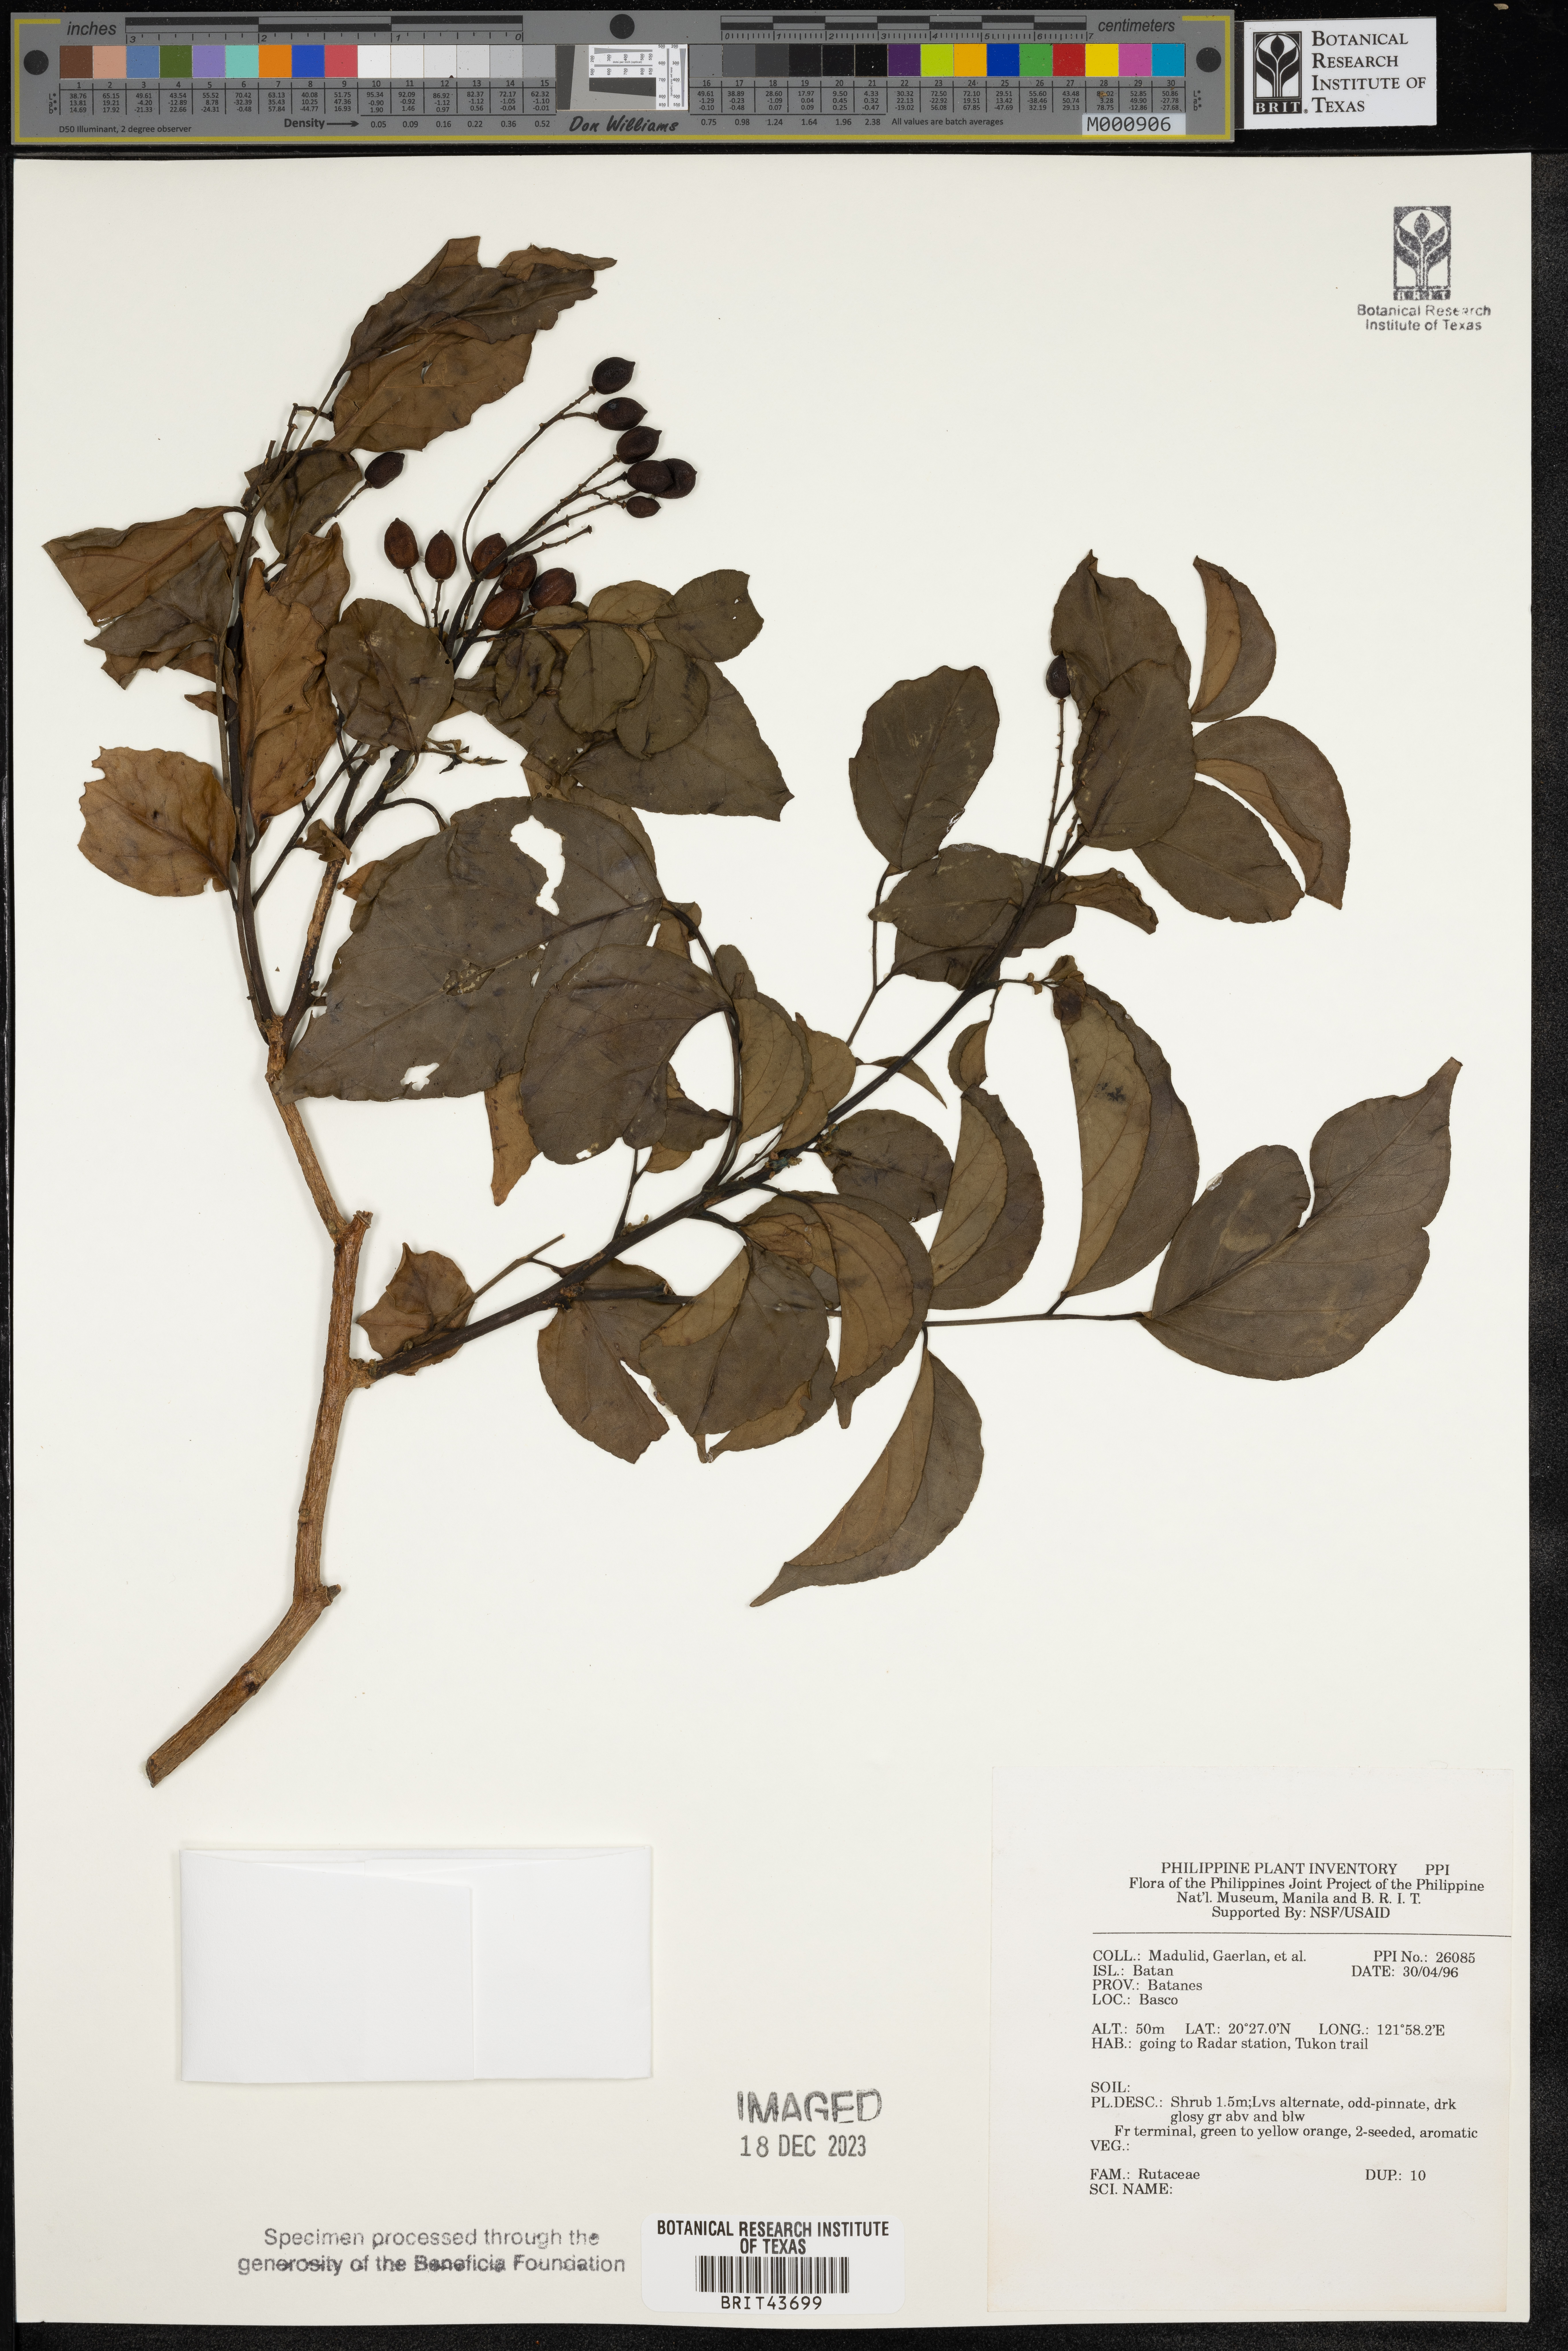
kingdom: Plantae
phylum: Tracheophyta
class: Magnoliopsida
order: Sapindales
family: Rutaceae
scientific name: Rutaceae
